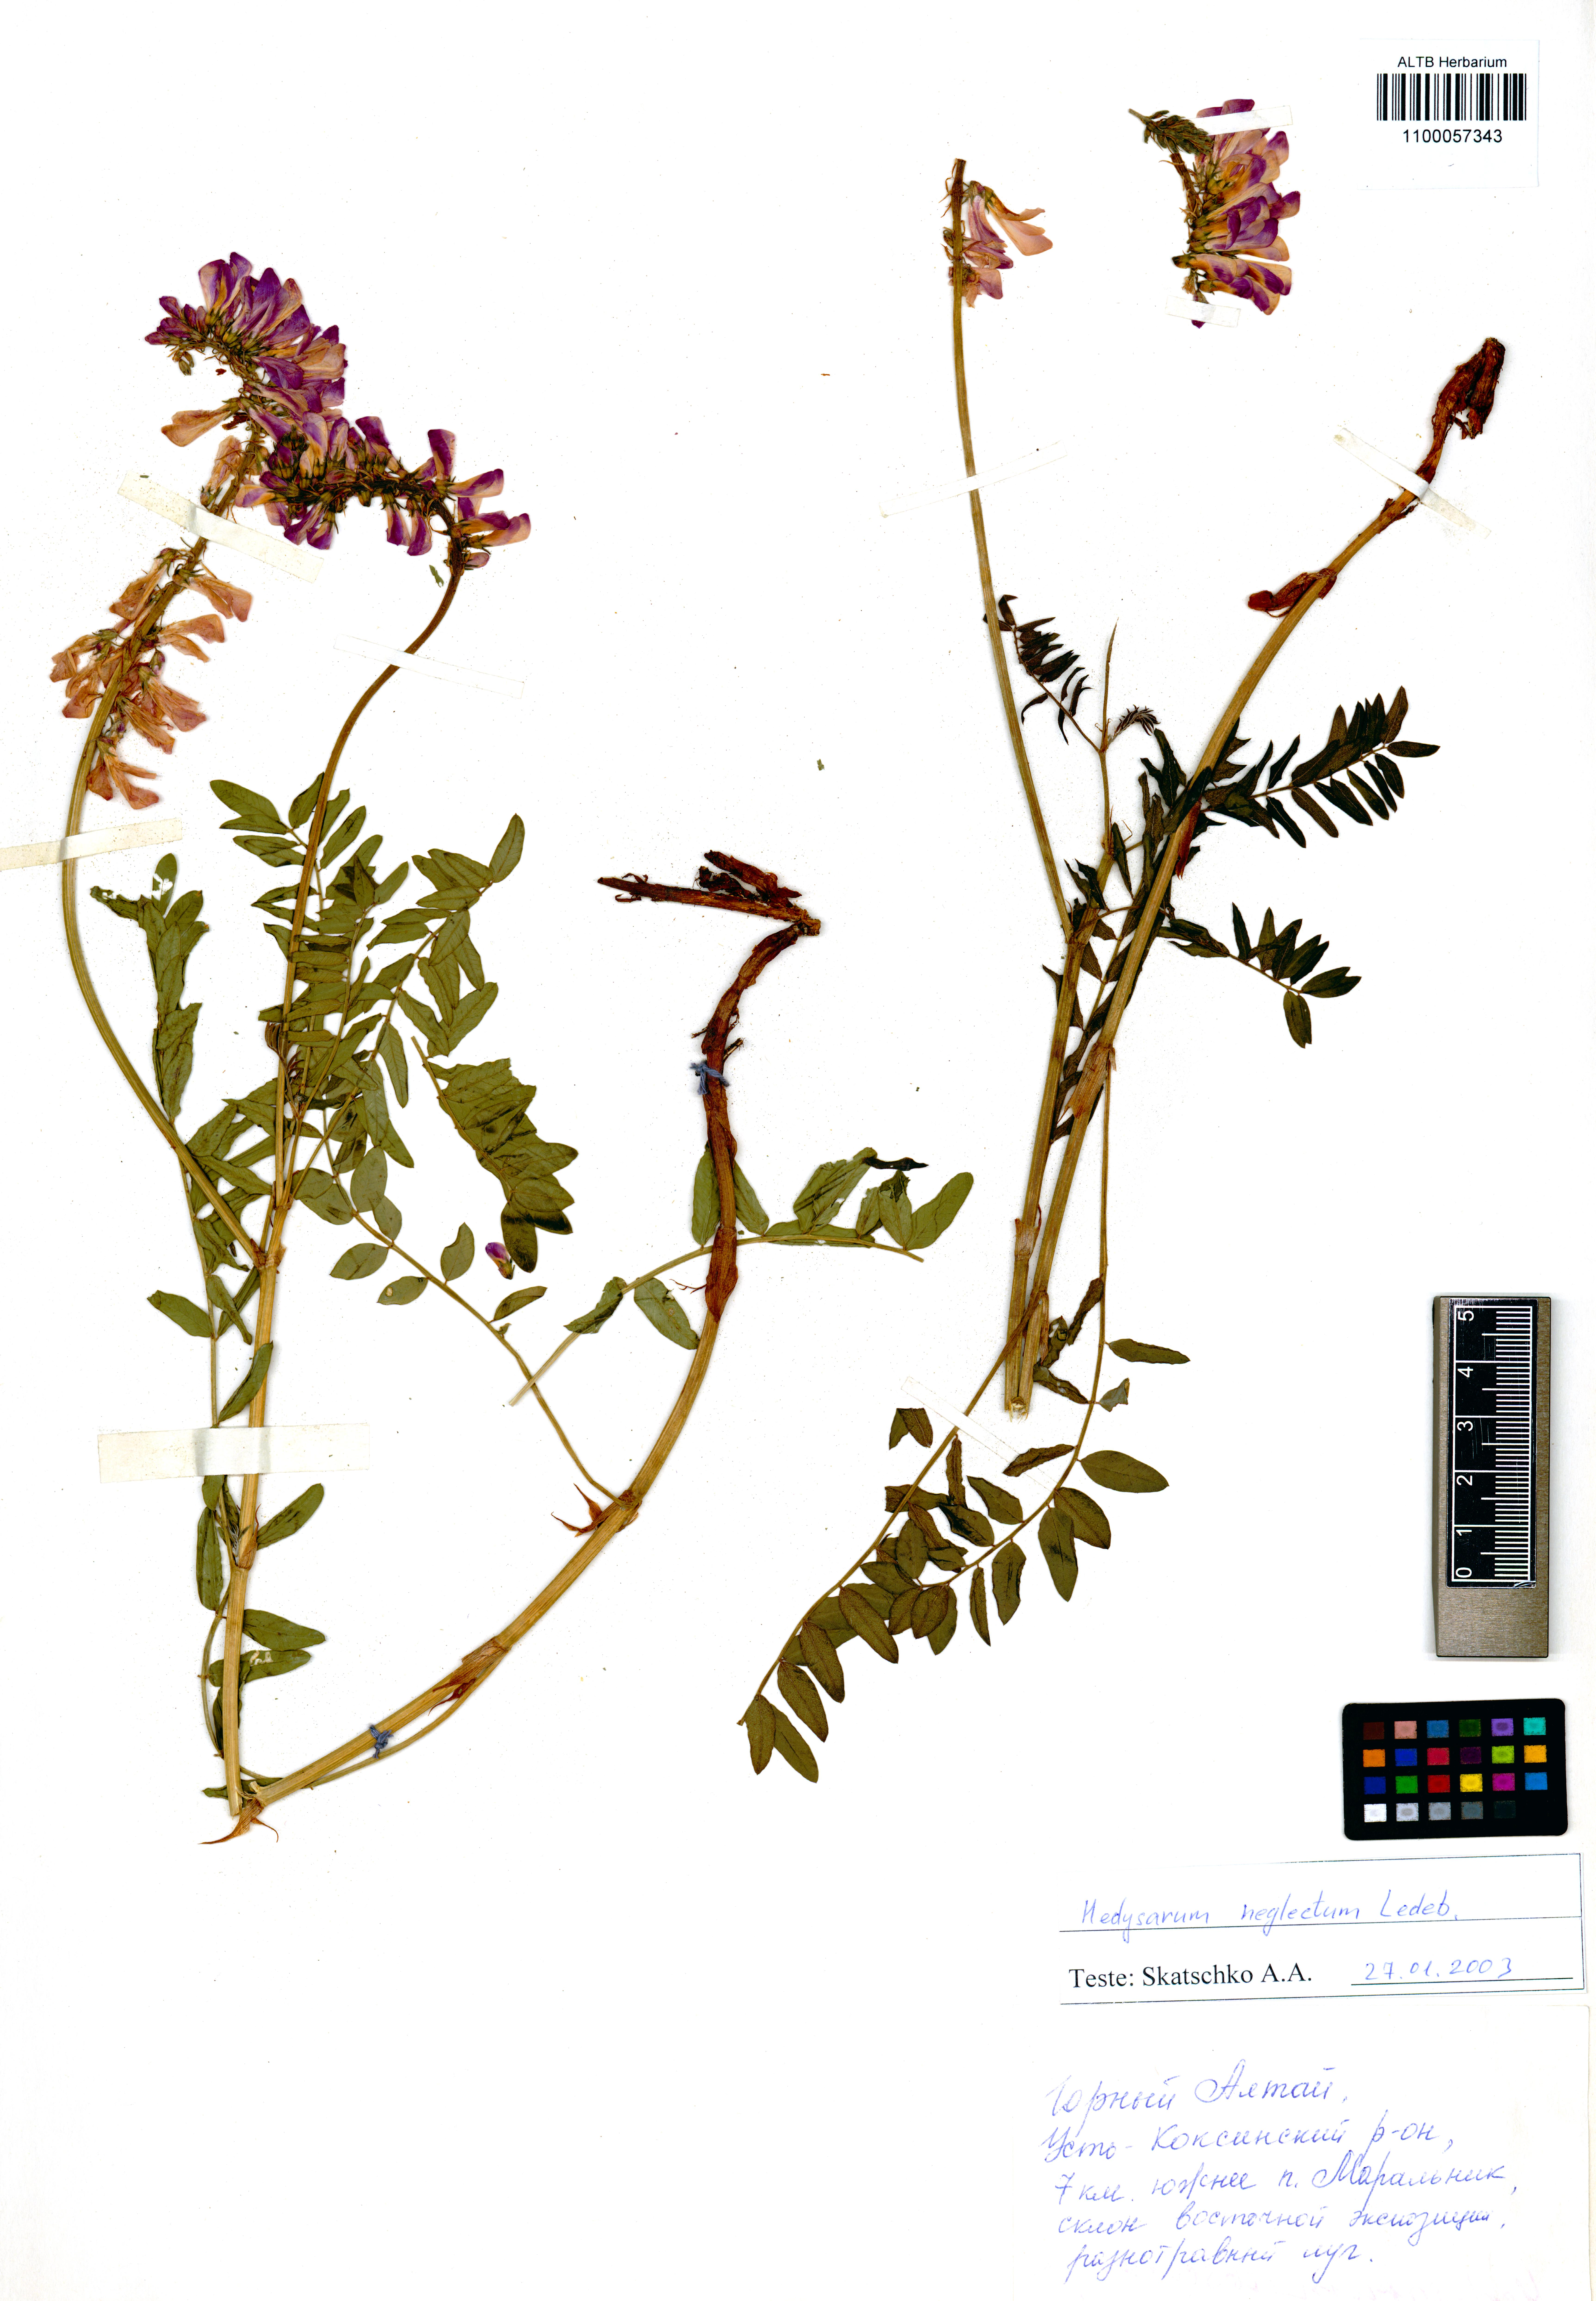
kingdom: Plantae
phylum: Tracheophyta
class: Magnoliopsida
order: Fabales
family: Fabaceae
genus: Hedysarum
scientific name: Hedysarum neglectum
